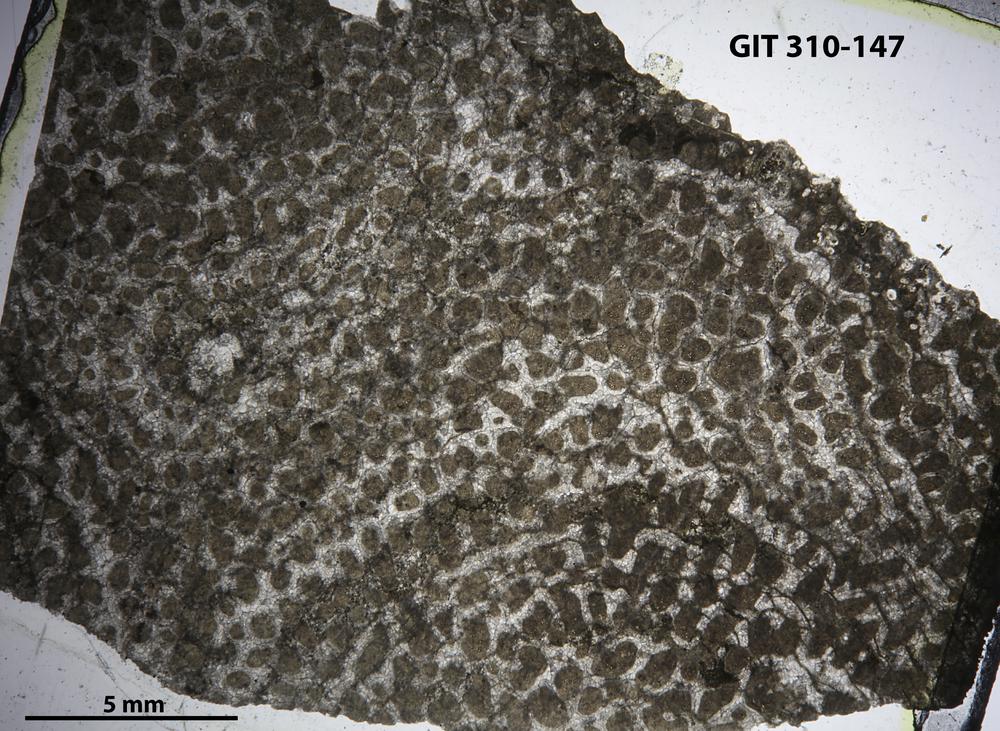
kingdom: Animalia
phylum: Porifera
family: Labechiidae
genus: Labechia
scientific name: Labechia
